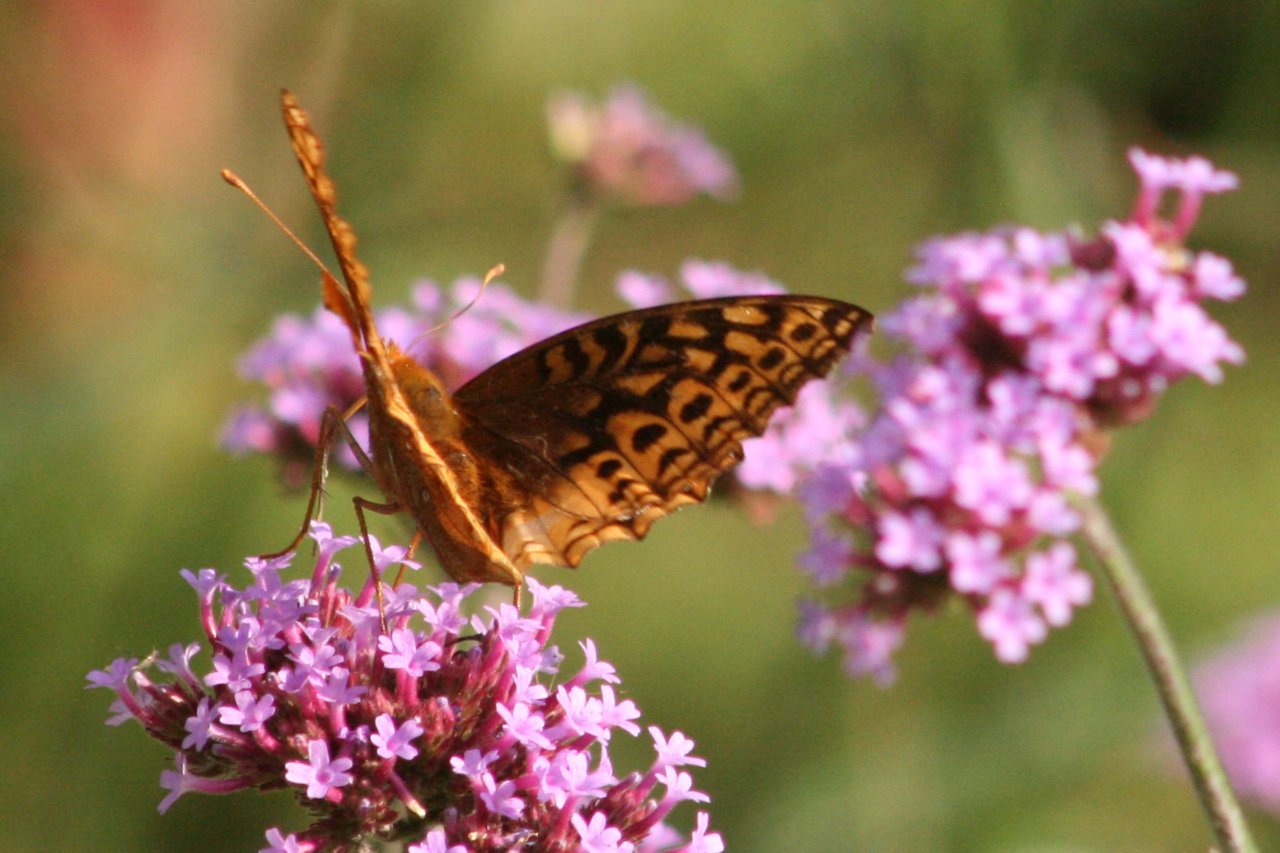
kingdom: Animalia
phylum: Arthropoda
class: Insecta
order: Lepidoptera
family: Nymphalidae
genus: Speyeria
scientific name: Speyeria cybele
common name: Great Spangled Fritillary
